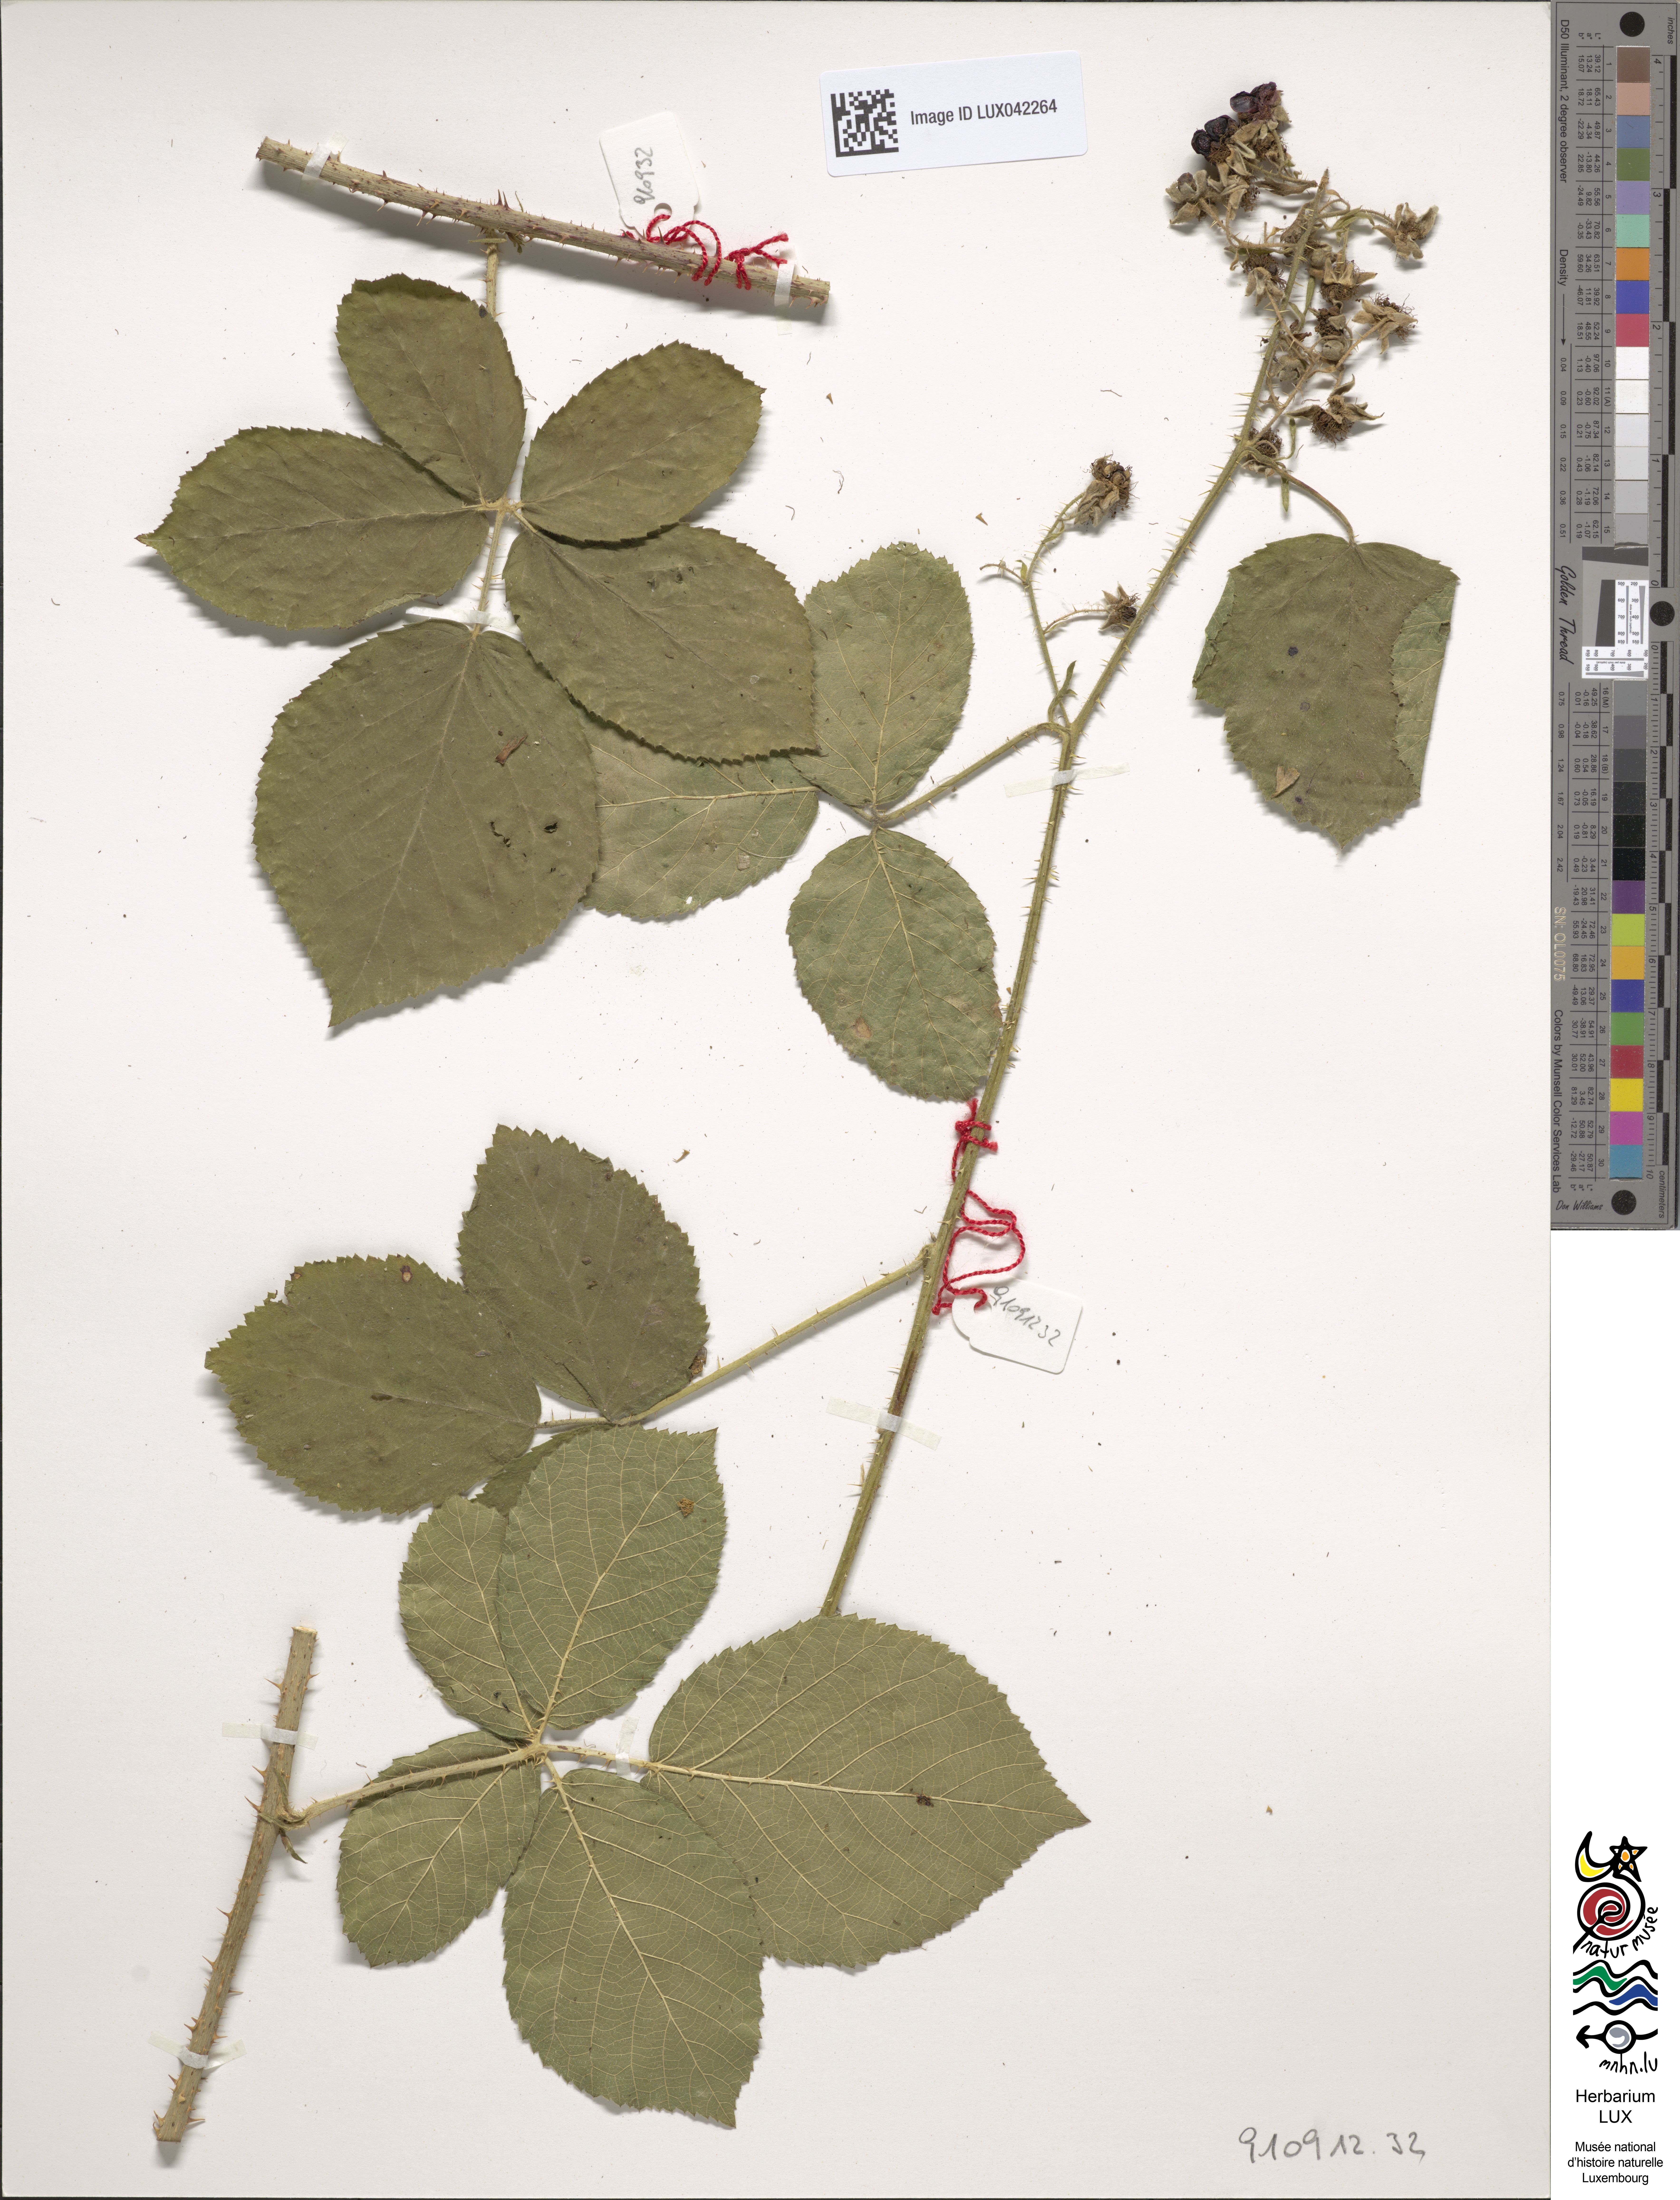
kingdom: Plantae
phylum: Tracheophyta
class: Magnoliopsida
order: Rosales
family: Rosaceae
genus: Rubus
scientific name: Rubus
